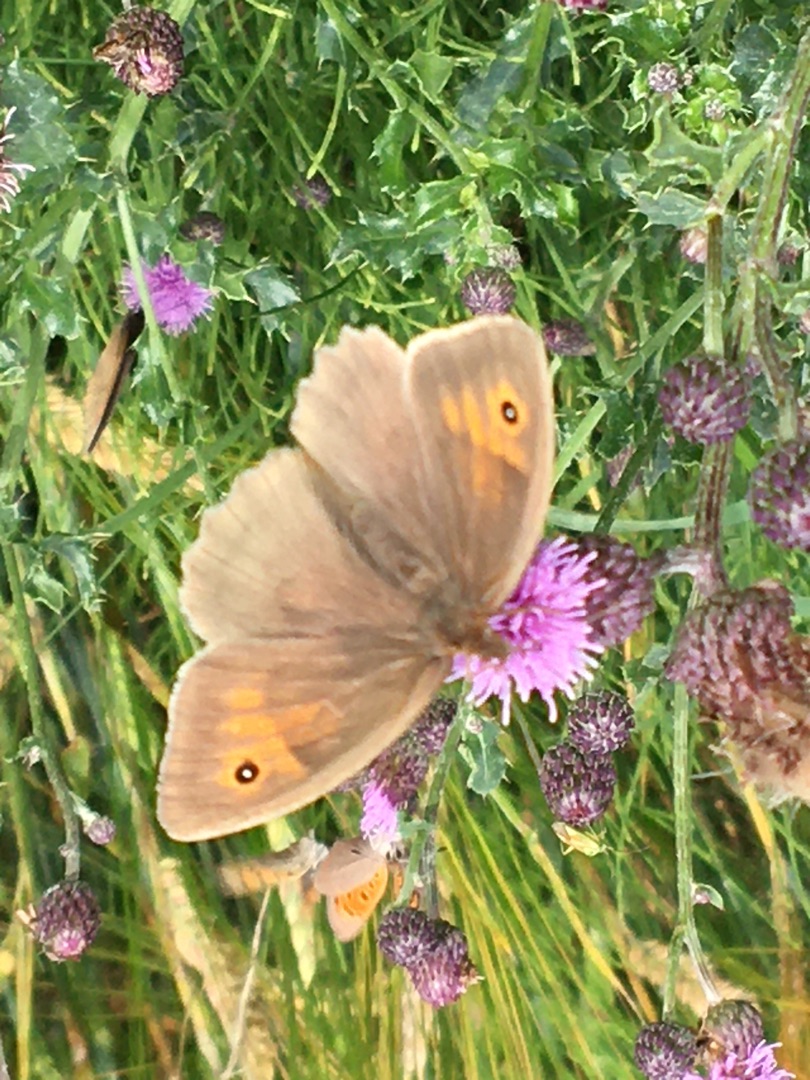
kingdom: Animalia
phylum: Arthropoda
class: Insecta
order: Lepidoptera
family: Nymphalidae
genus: Maniola
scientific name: Maniola jurtina
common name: Græsrandøje
